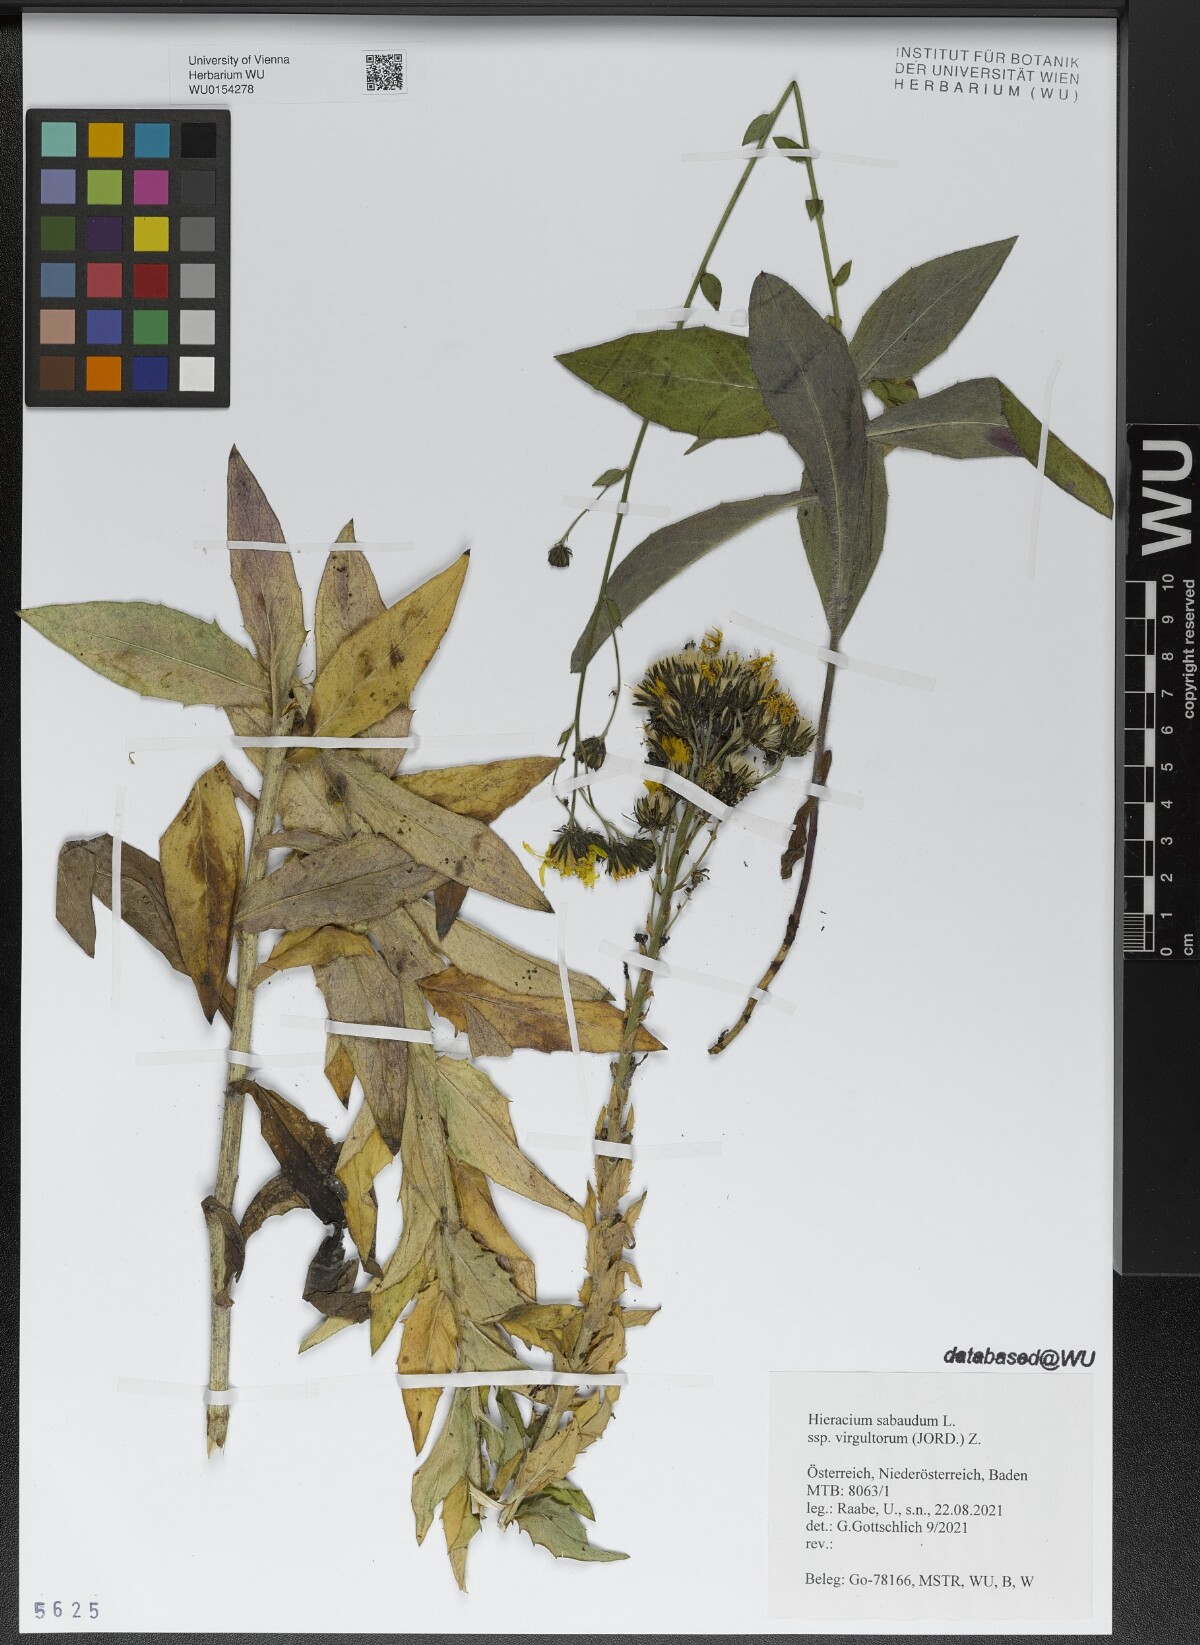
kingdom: Plantae
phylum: Tracheophyta
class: Magnoliopsida
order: Asterales
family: Asteraceae
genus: Hieracium
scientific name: Hieracium sabaudum
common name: New england hawkweed
